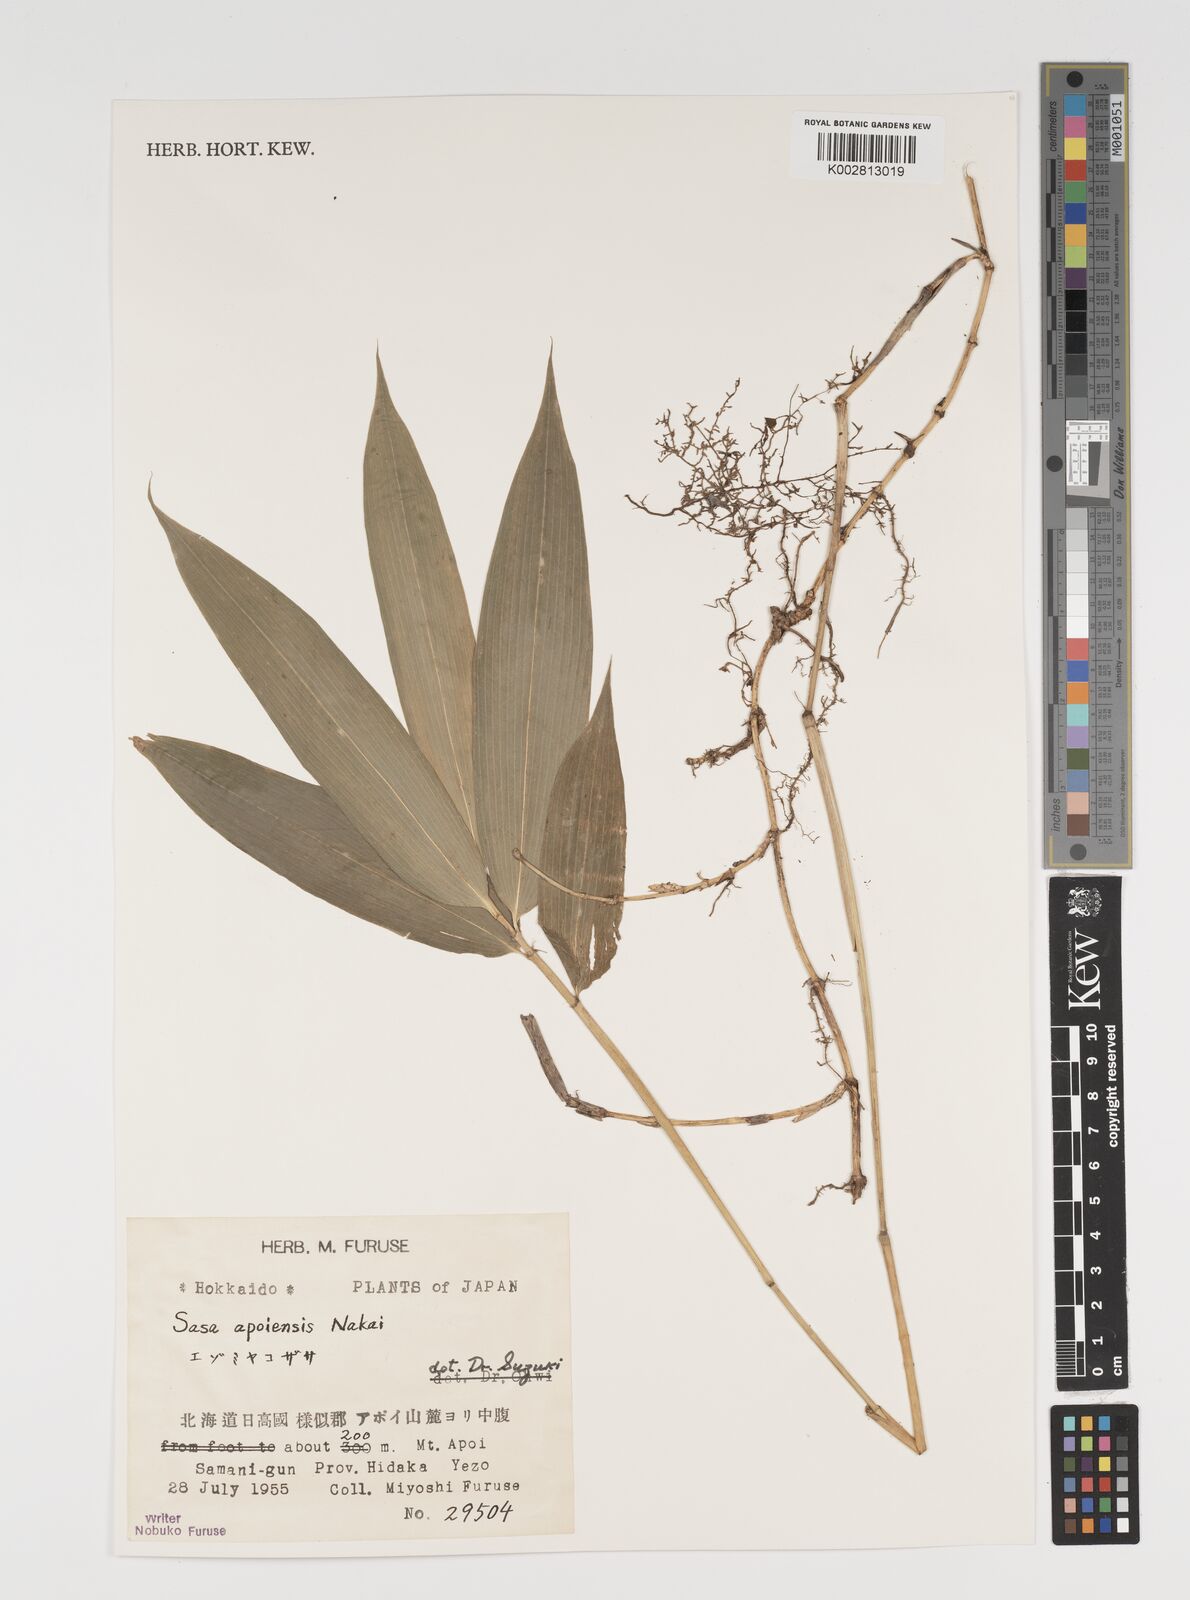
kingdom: Plantae
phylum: Tracheophyta
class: Liliopsida
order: Poales
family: Poaceae
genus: Sasa
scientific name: Sasa chartacea
